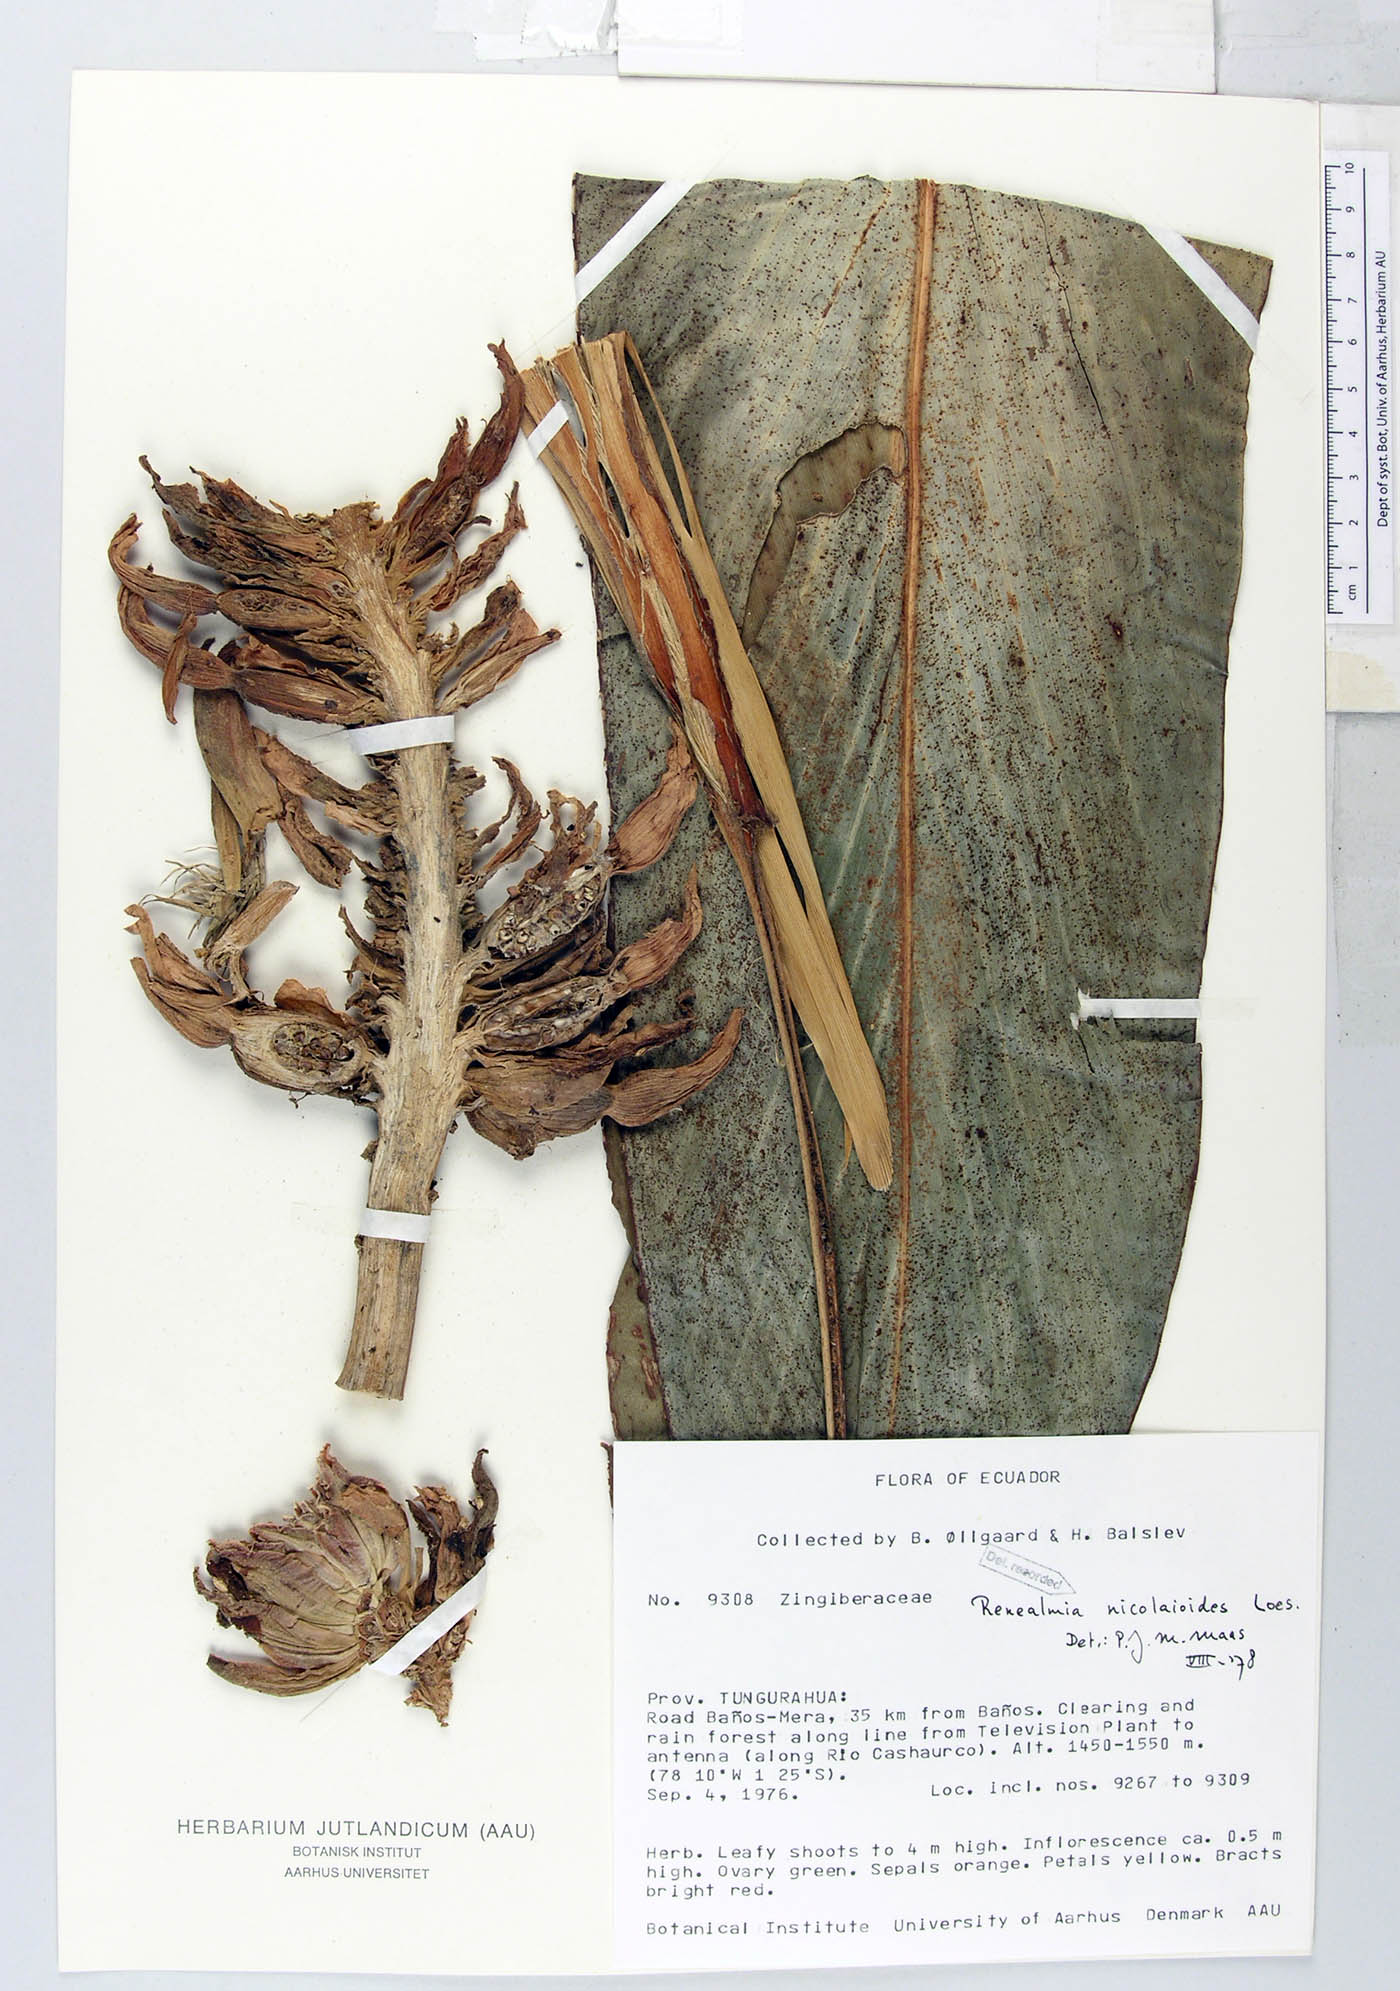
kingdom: Plantae
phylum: Tracheophyta
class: Liliopsida
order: Zingiberales
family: Zingiberaceae
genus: Renealmia
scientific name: Renealmia nicolaioides
